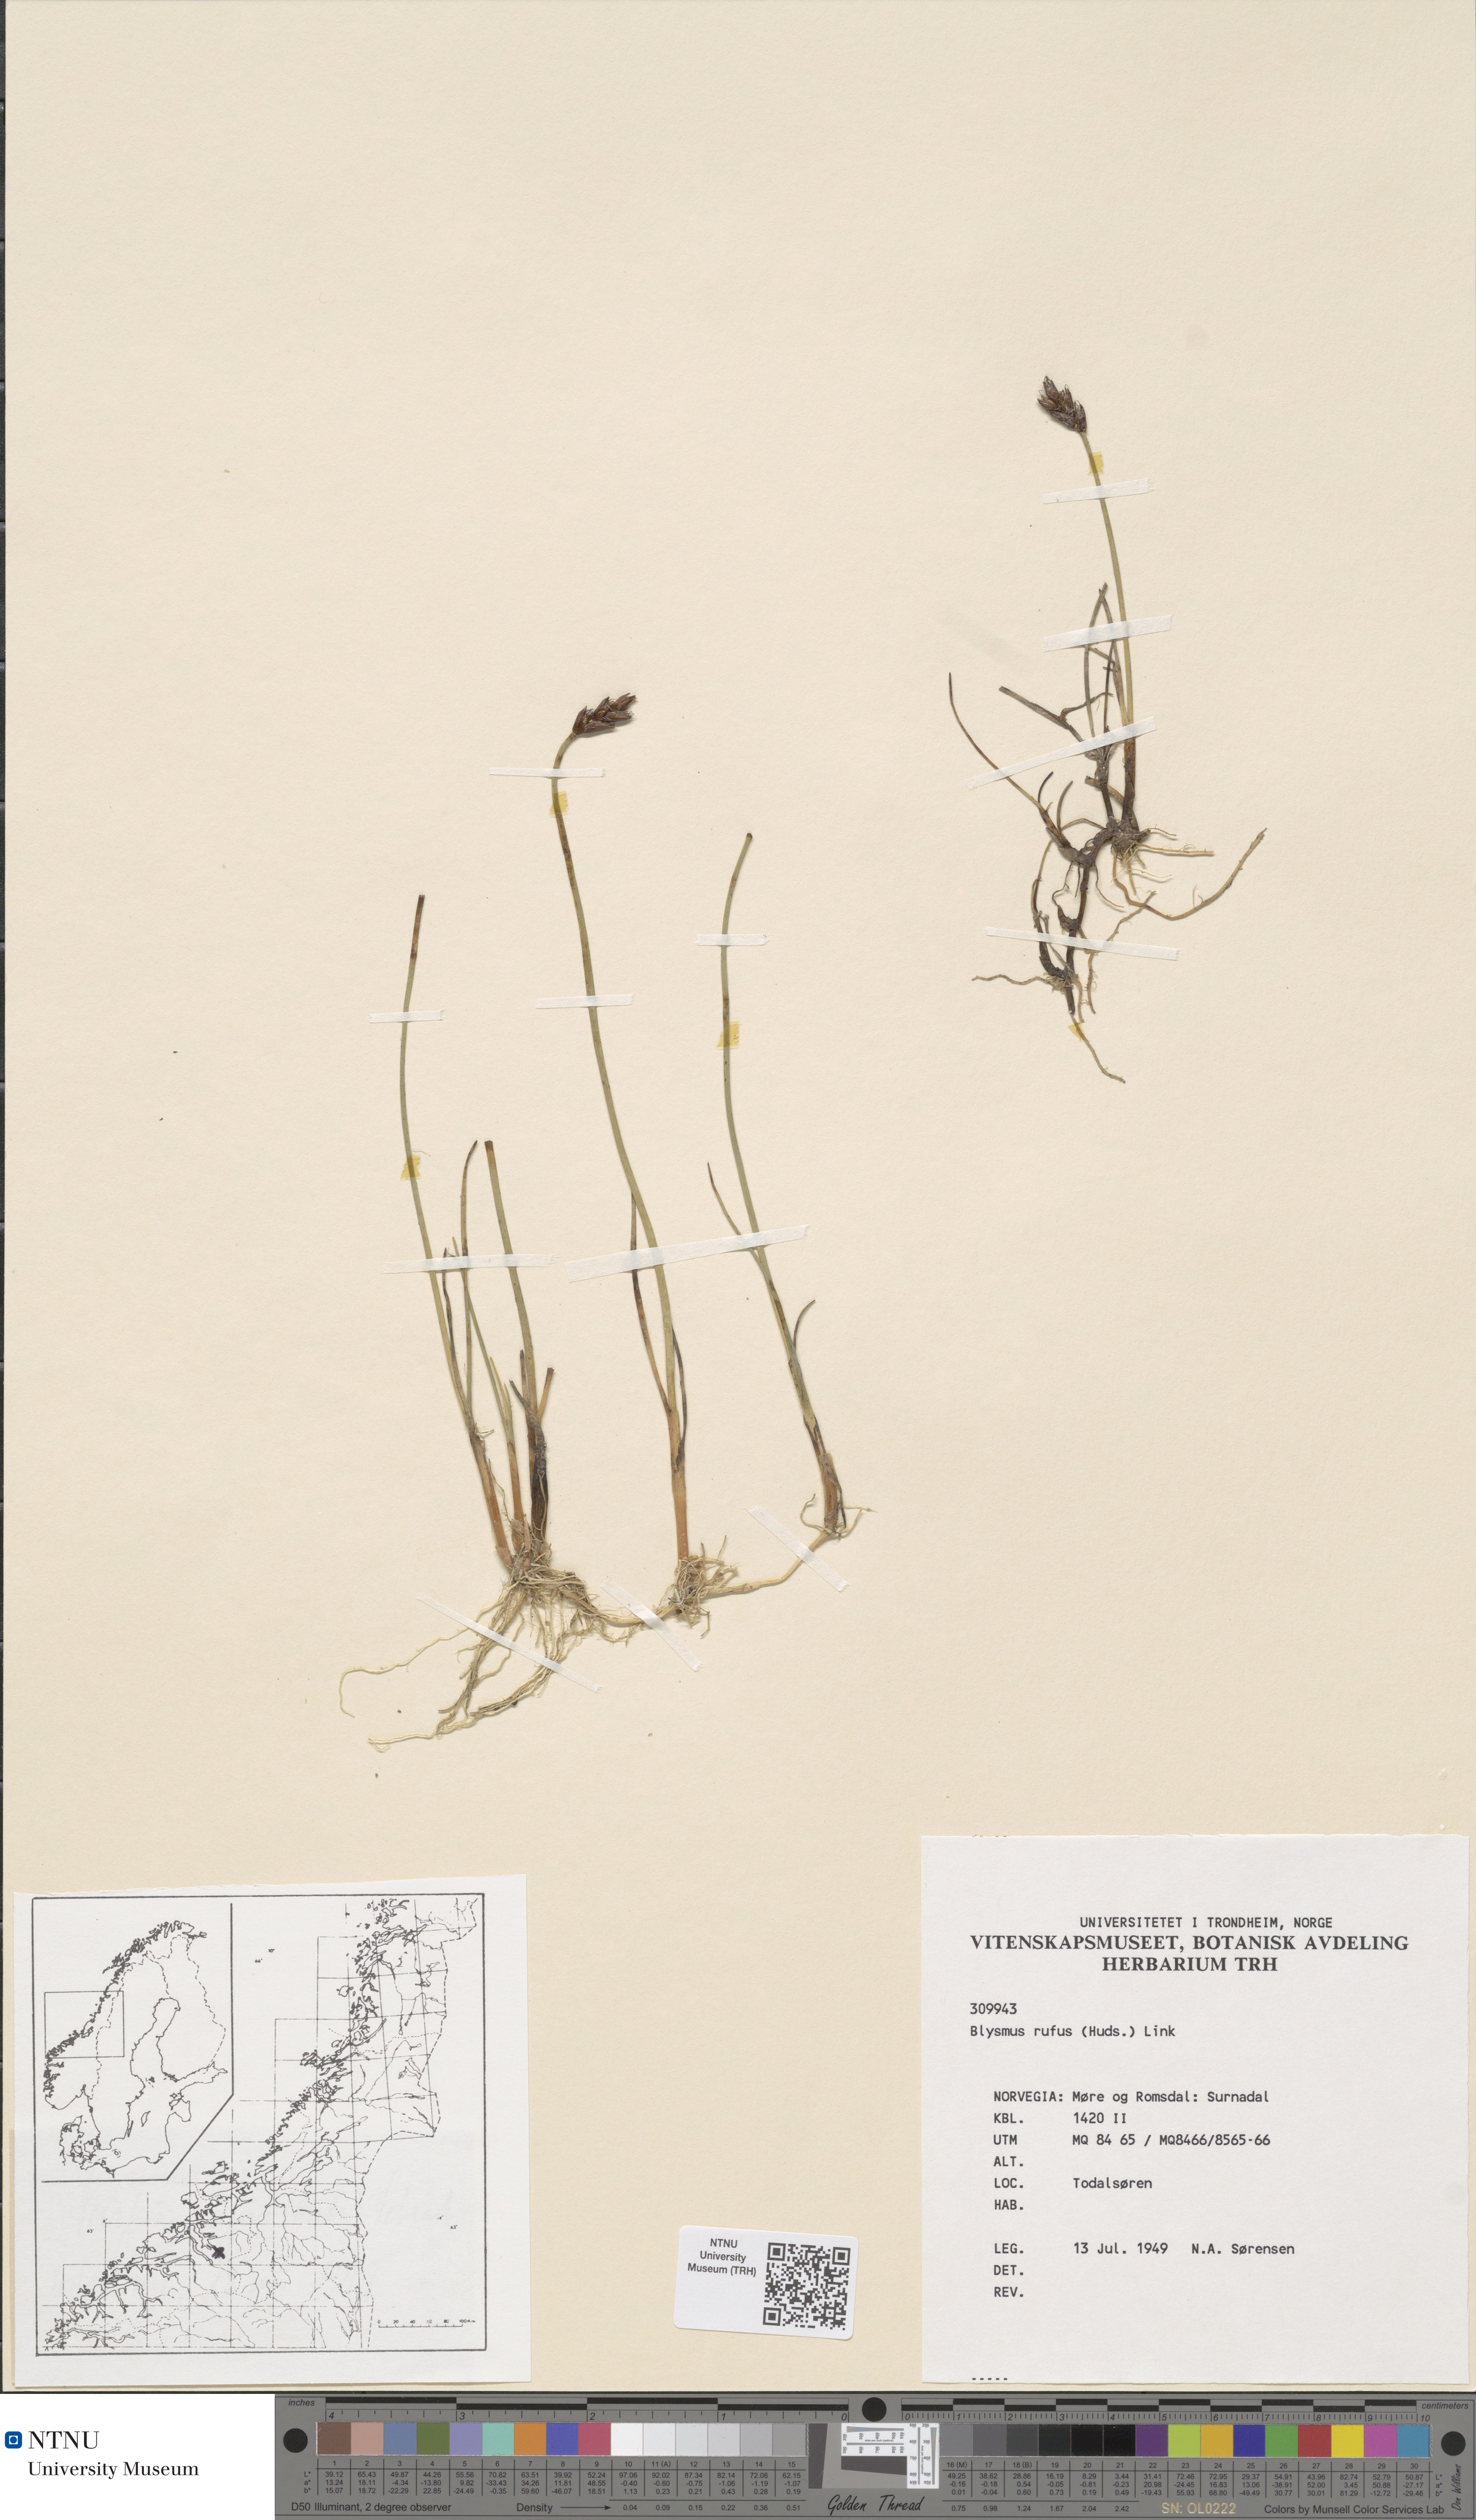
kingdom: Plantae
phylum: Tracheophyta
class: Liliopsida
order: Poales
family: Cyperaceae
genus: Blysmus
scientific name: Blysmus rufus
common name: Saltmarsh flat-sedge
